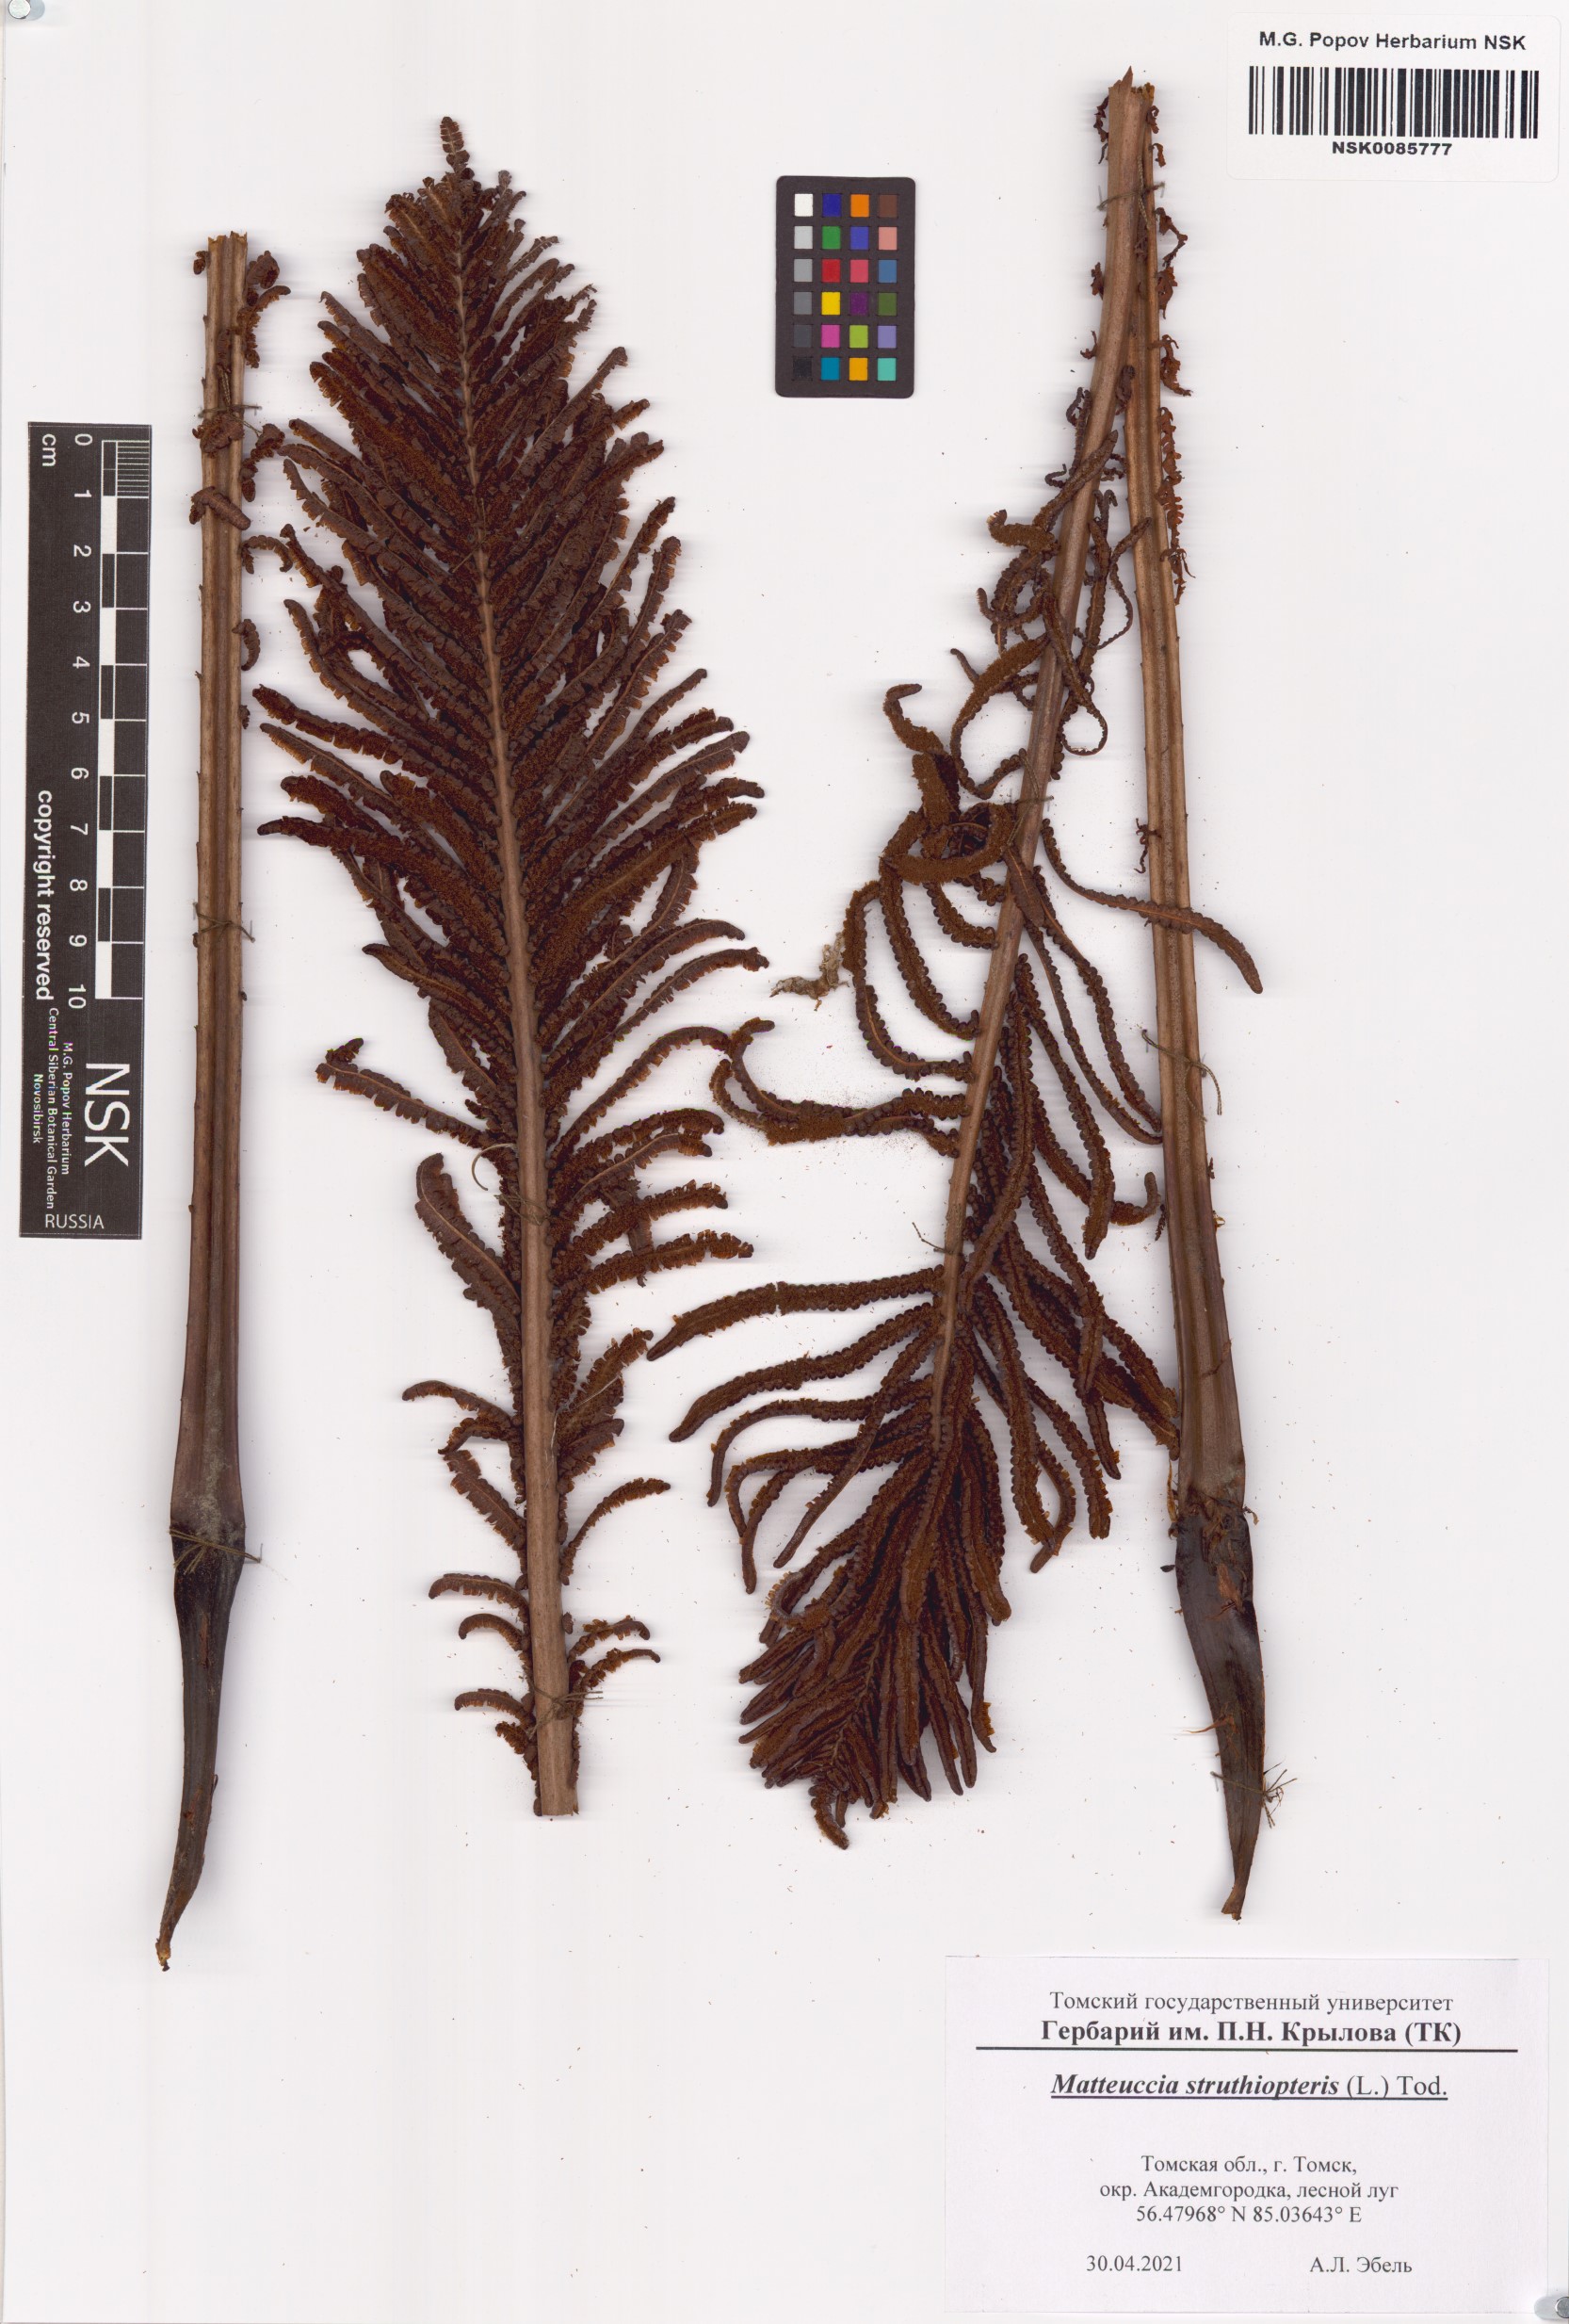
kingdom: Plantae
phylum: Tracheophyta
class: Polypodiopsida
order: Polypodiales
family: Onocleaceae
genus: Matteuccia
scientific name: Matteuccia struthiopteris
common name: Ostrich fern
